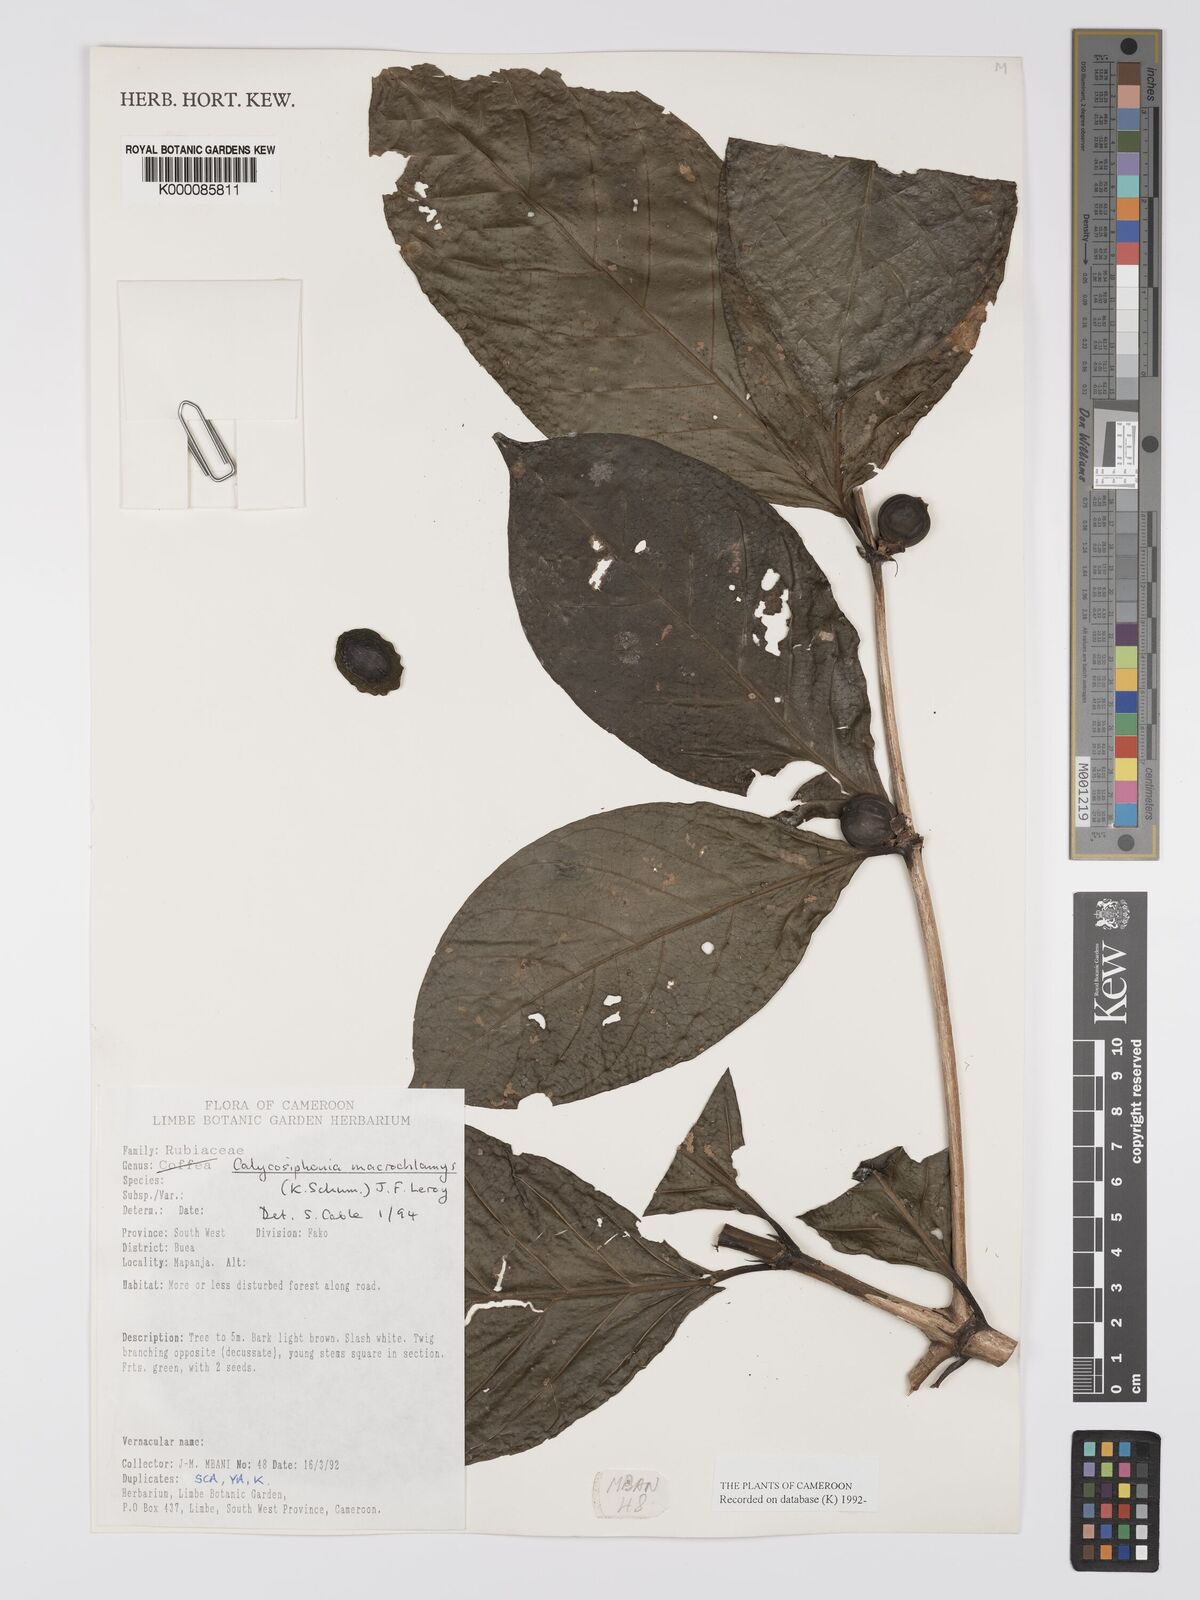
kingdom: Plantae
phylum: Tracheophyta
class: Magnoliopsida
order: Gentianales
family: Rubiaceae
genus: Calycosiphonia
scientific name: Calycosiphonia macrochlamys
